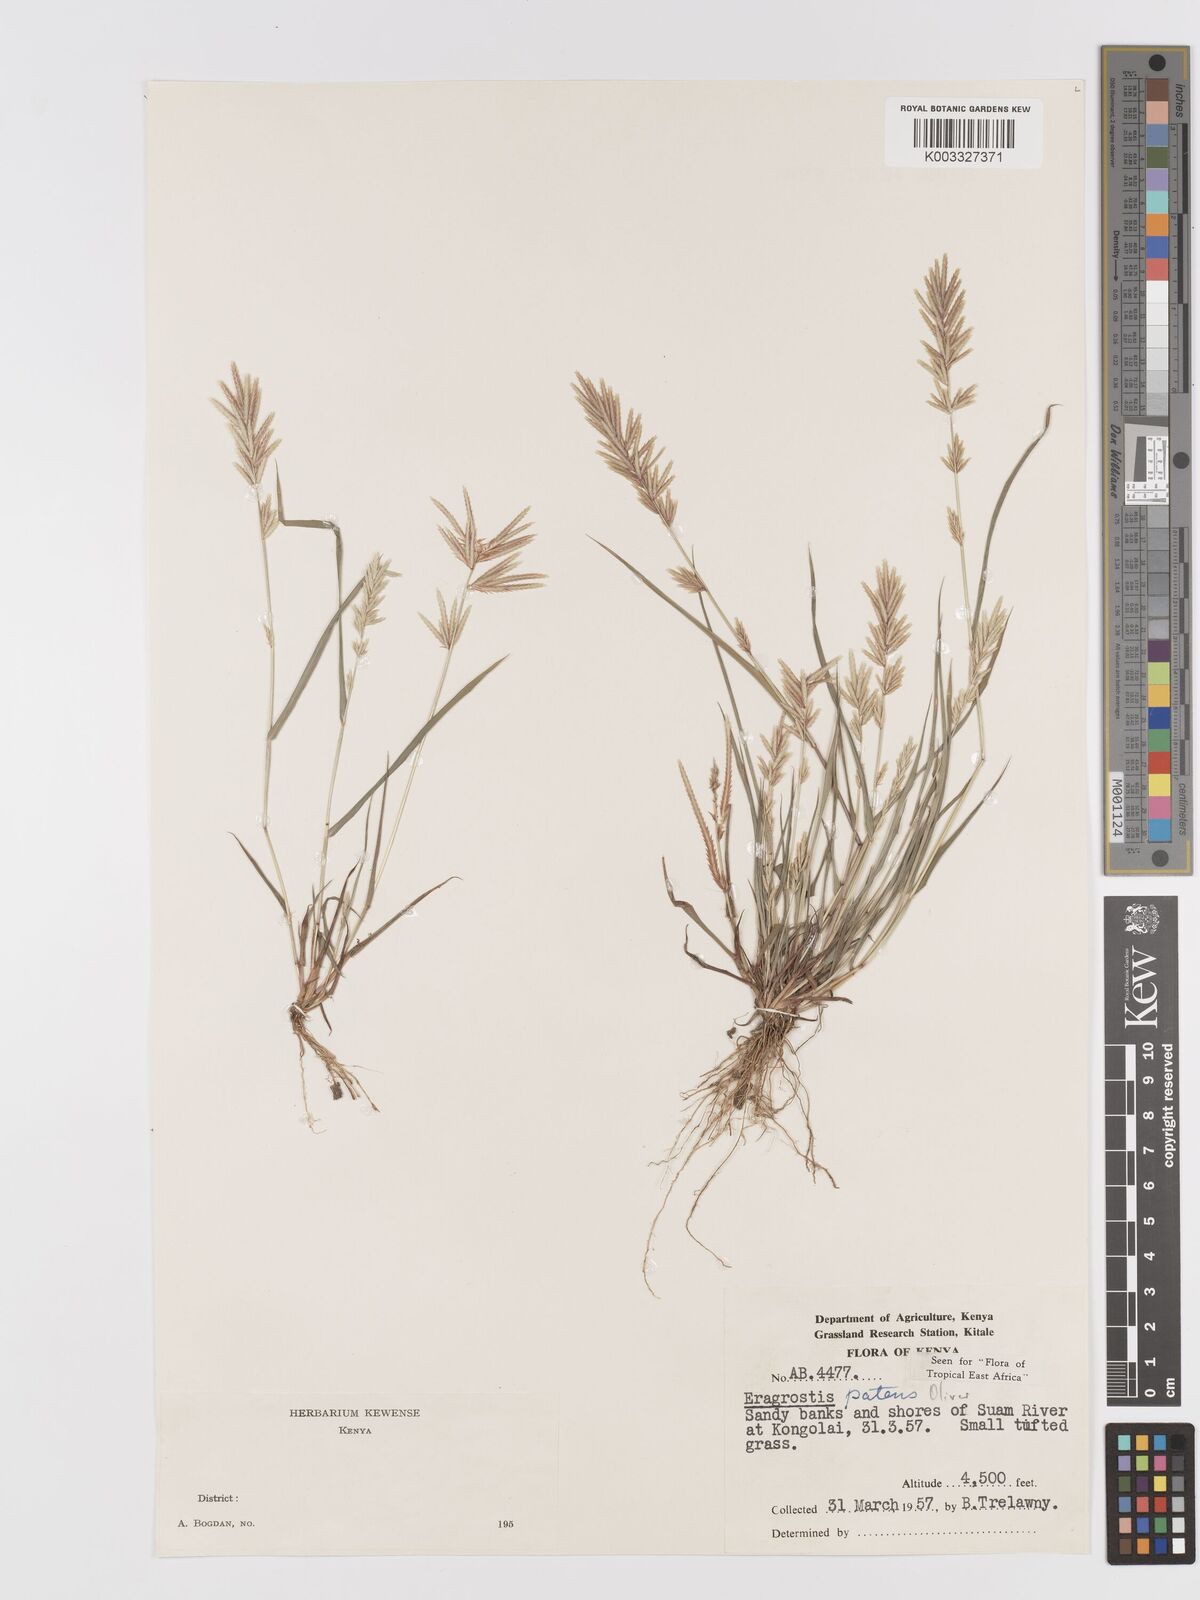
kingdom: Plantae
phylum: Tracheophyta
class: Liliopsida
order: Poales
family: Poaceae
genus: Eragrostis
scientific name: Eragrostis patens
